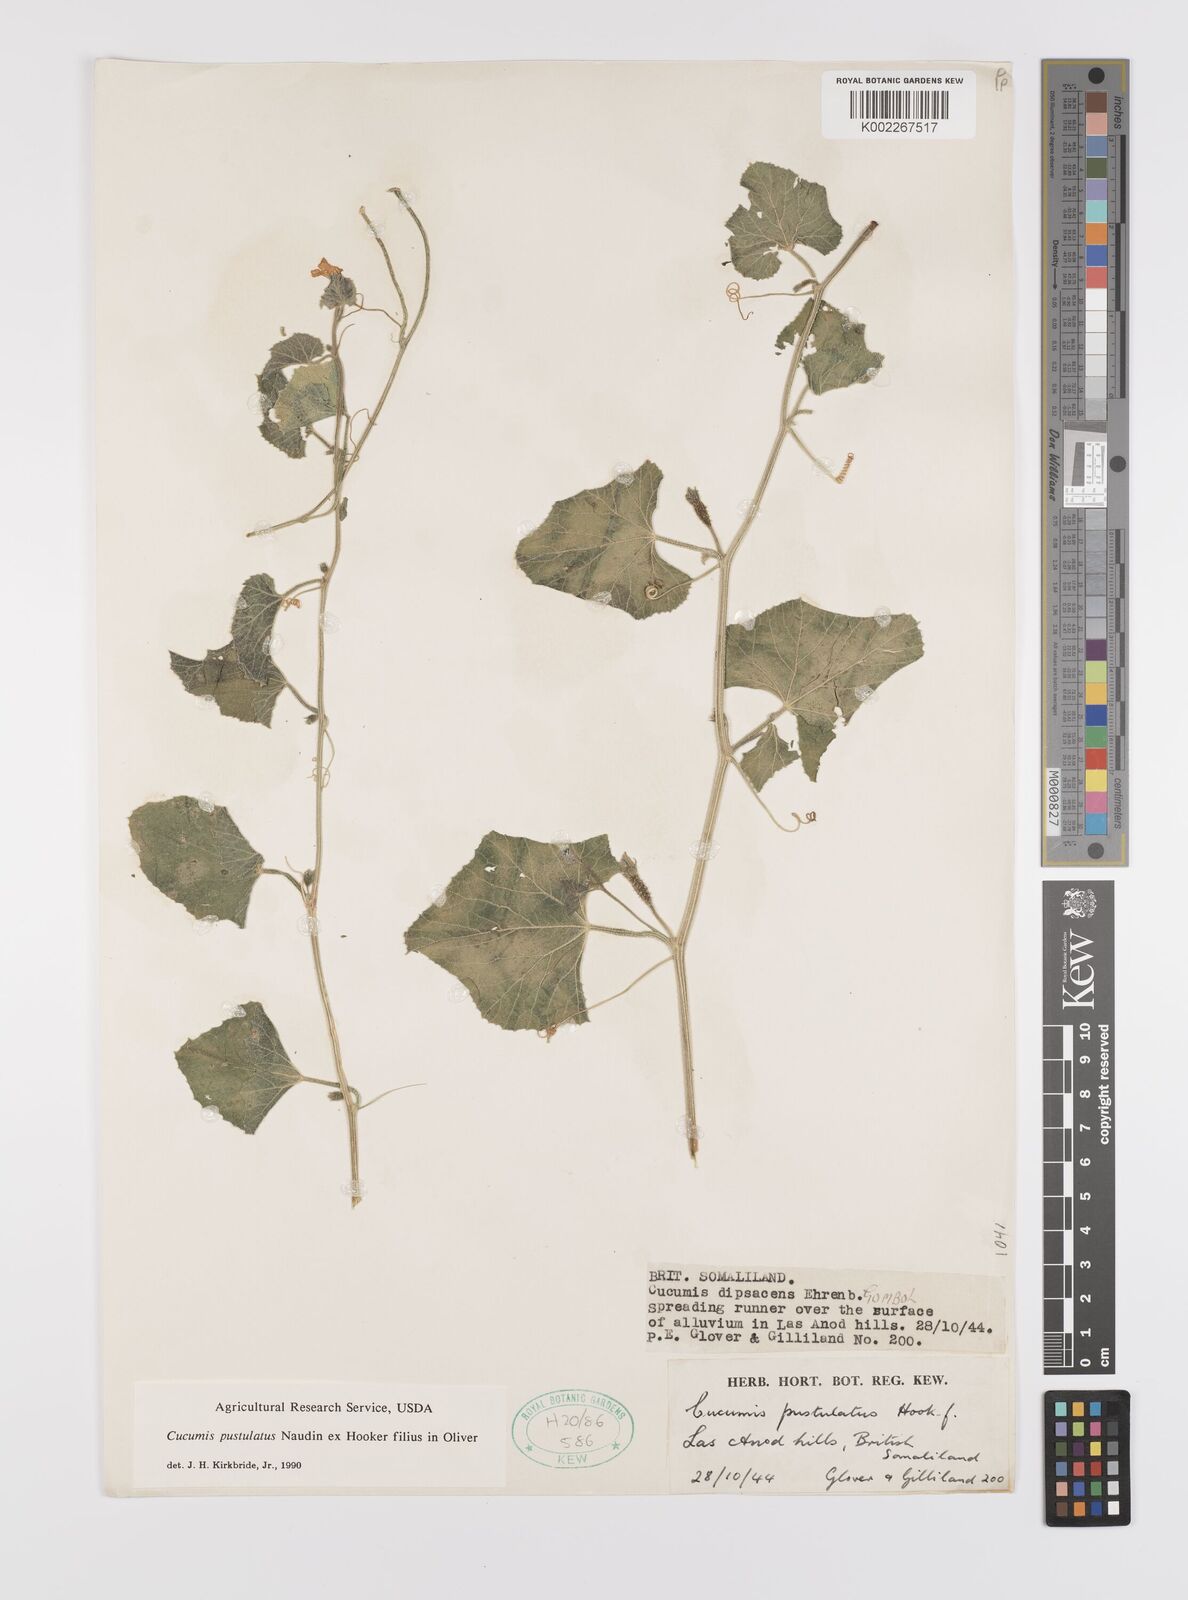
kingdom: Plantae
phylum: Tracheophyta
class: Magnoliopsida
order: Cucurbitales
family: Cucurbitaceae
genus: Cucumis
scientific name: Cucumis pustulatus
